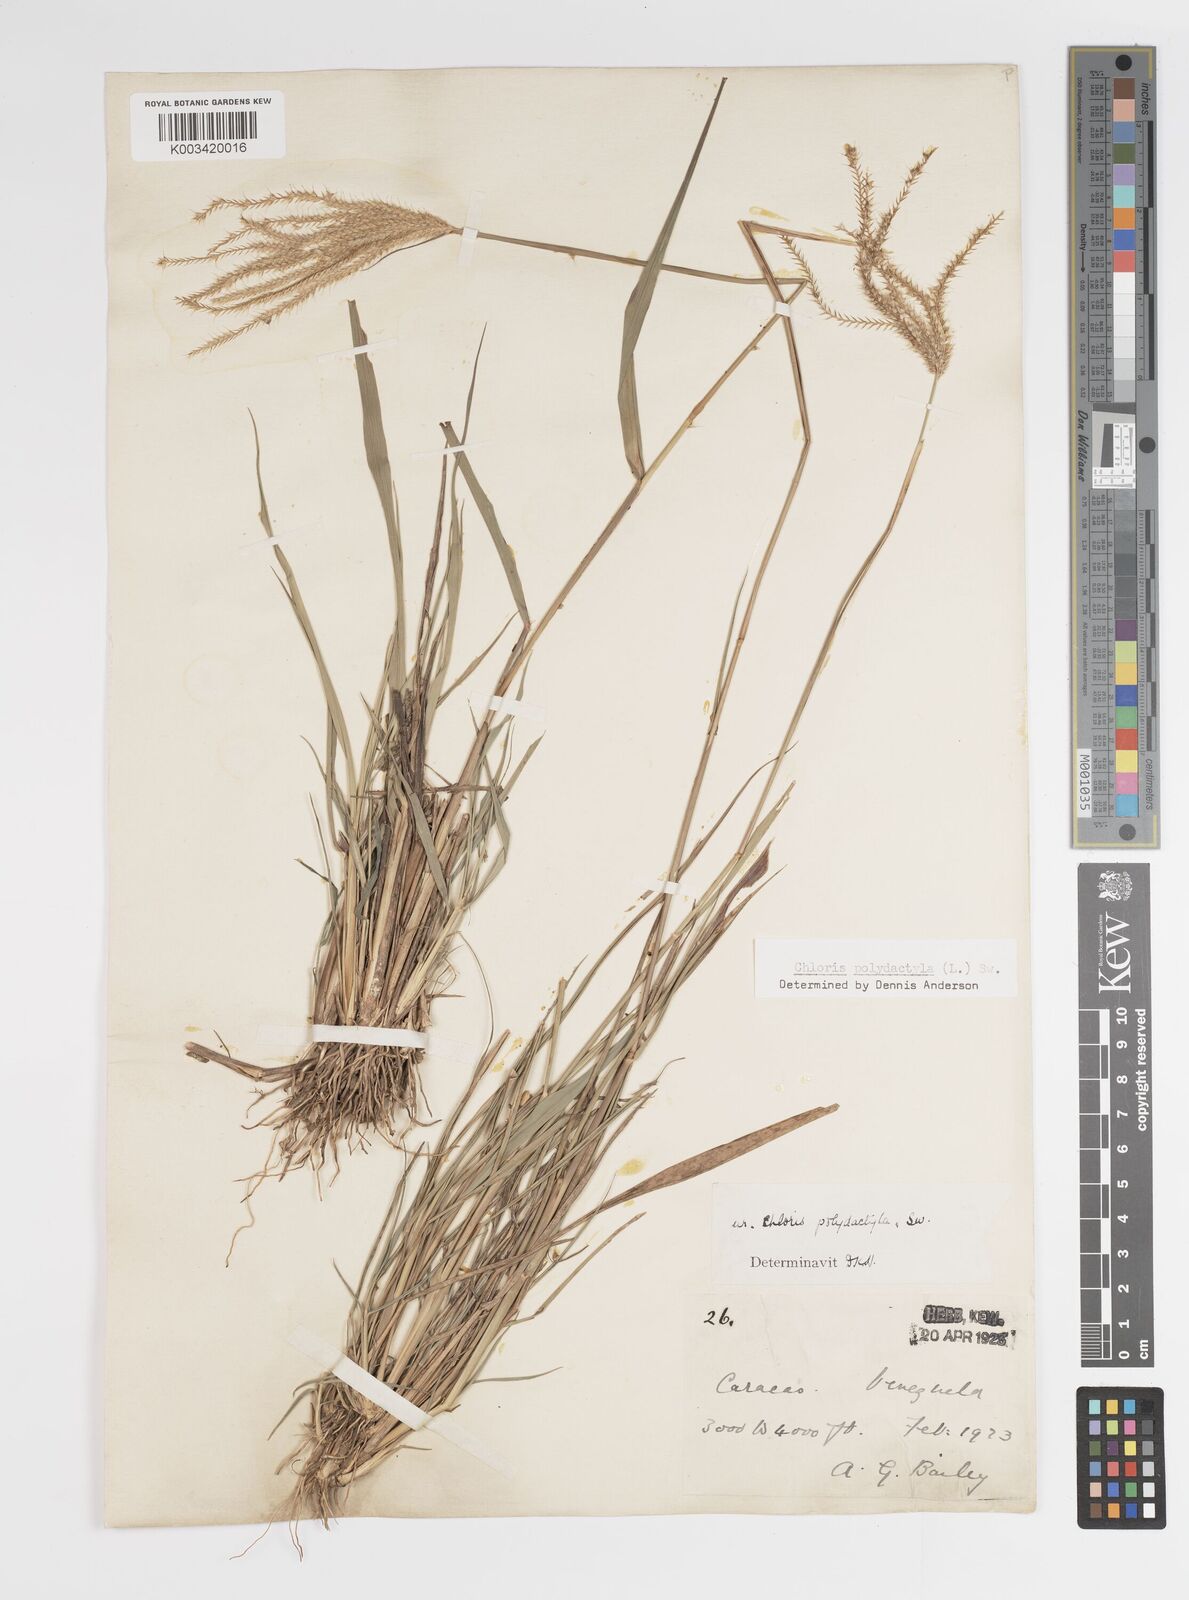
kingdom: Plantae
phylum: Tracheophyta
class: Liliopsida
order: Poales
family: Poaceae
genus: Stapfochloa
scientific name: Stapfochloa elata
